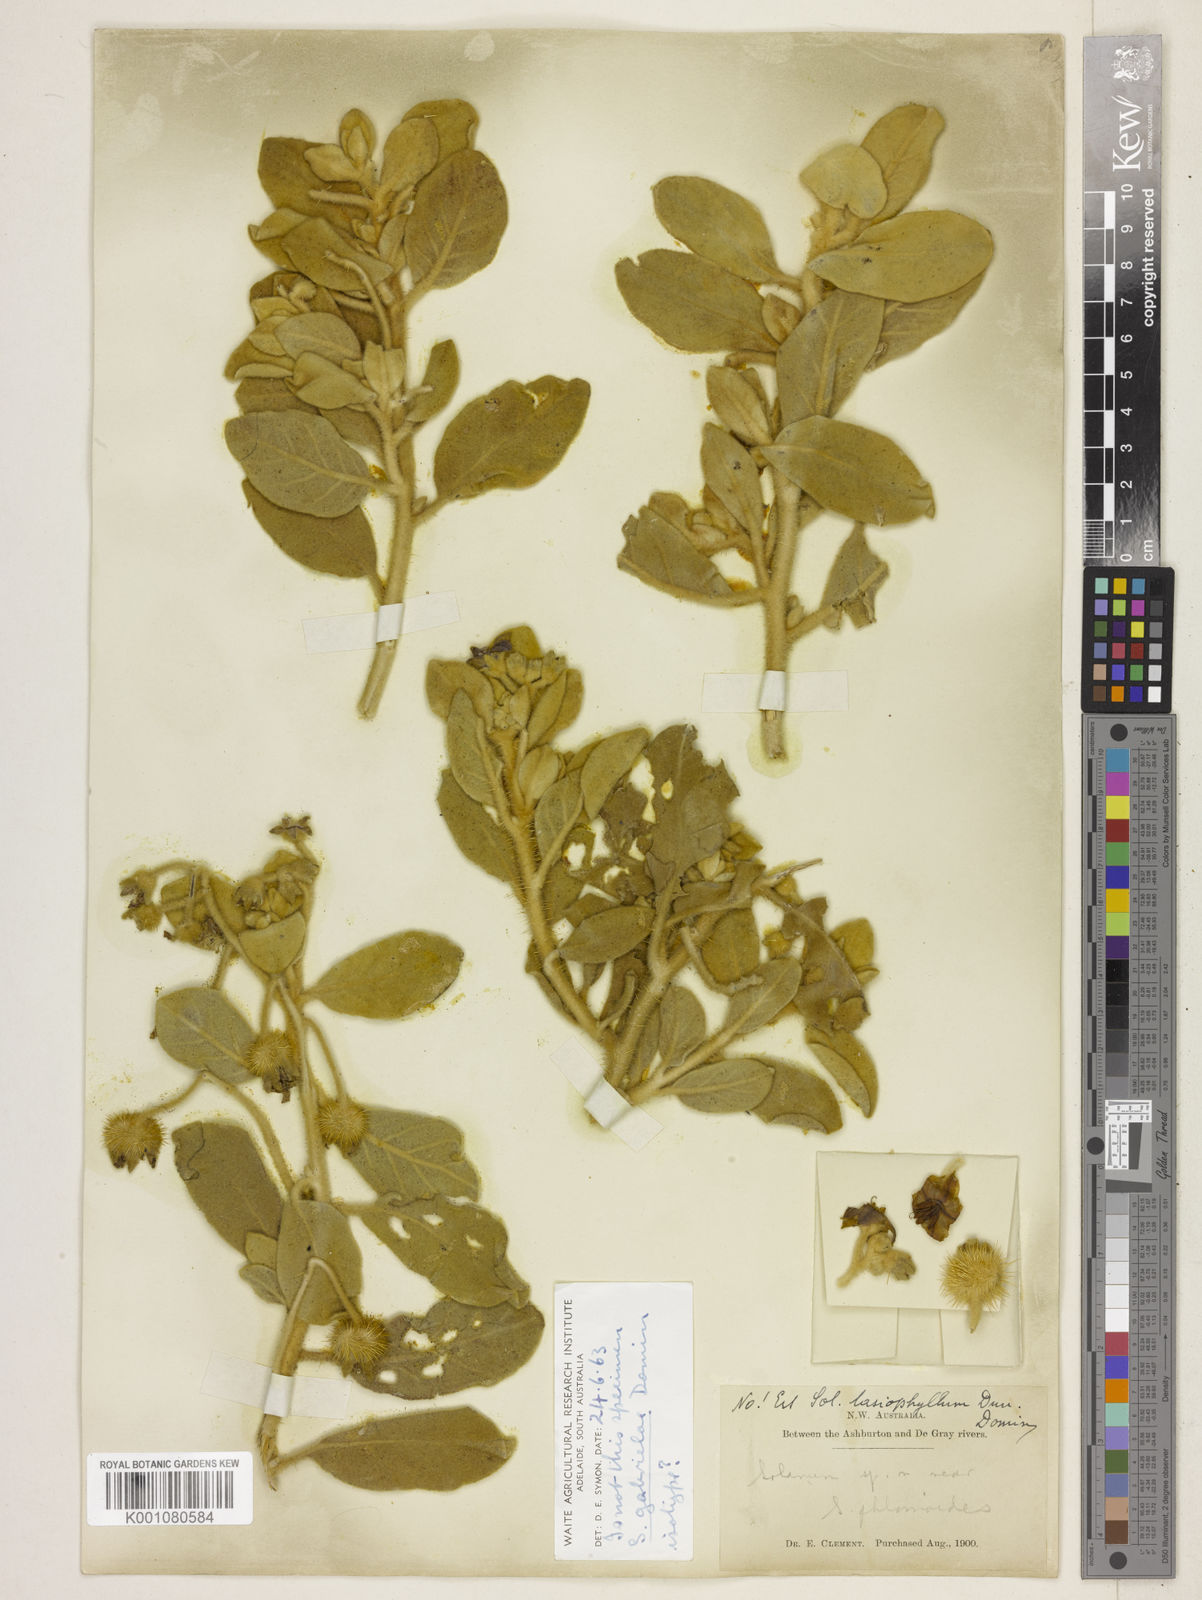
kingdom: Plantae
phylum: Tracheophyta
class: Magnoliopsida
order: Solanales
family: Solanaceae
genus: Solanum
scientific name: Solanum gabrielae
